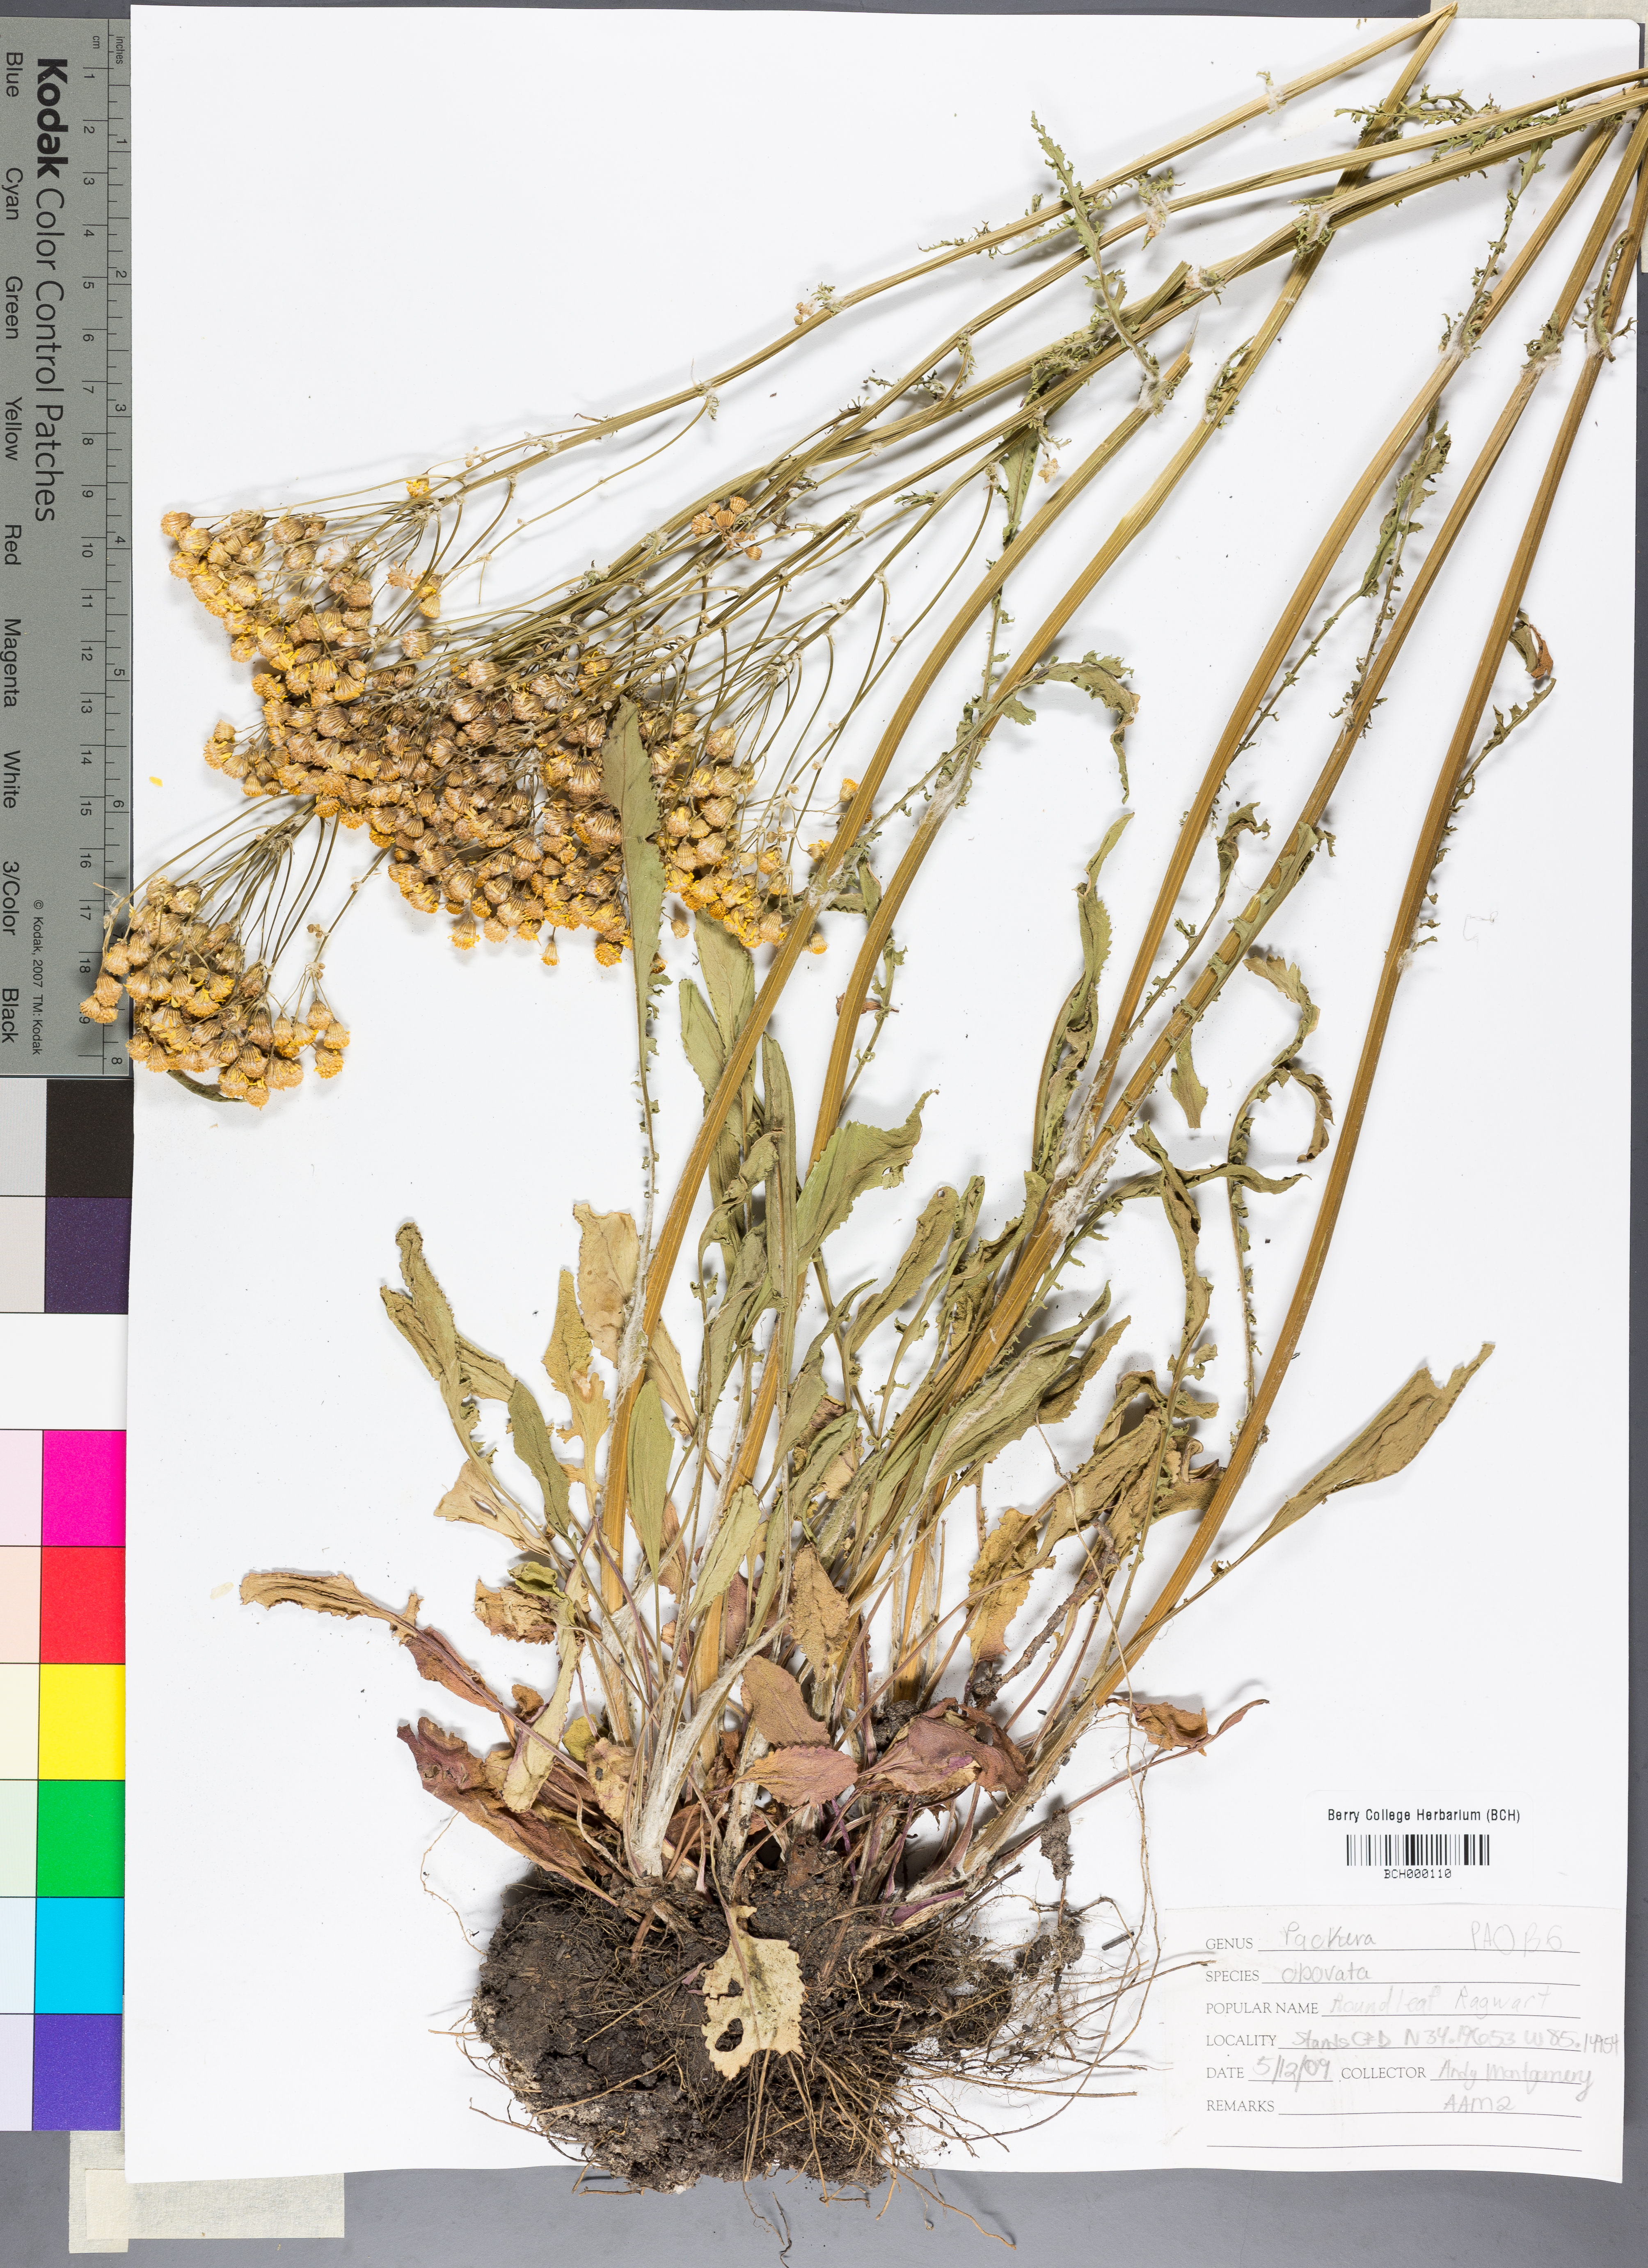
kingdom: Plantae
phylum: Tracheophyta
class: Magnoliopsida
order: Asterales
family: Asteraceae
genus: Packera
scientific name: Packera obovata
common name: Round-leaf ragwort
